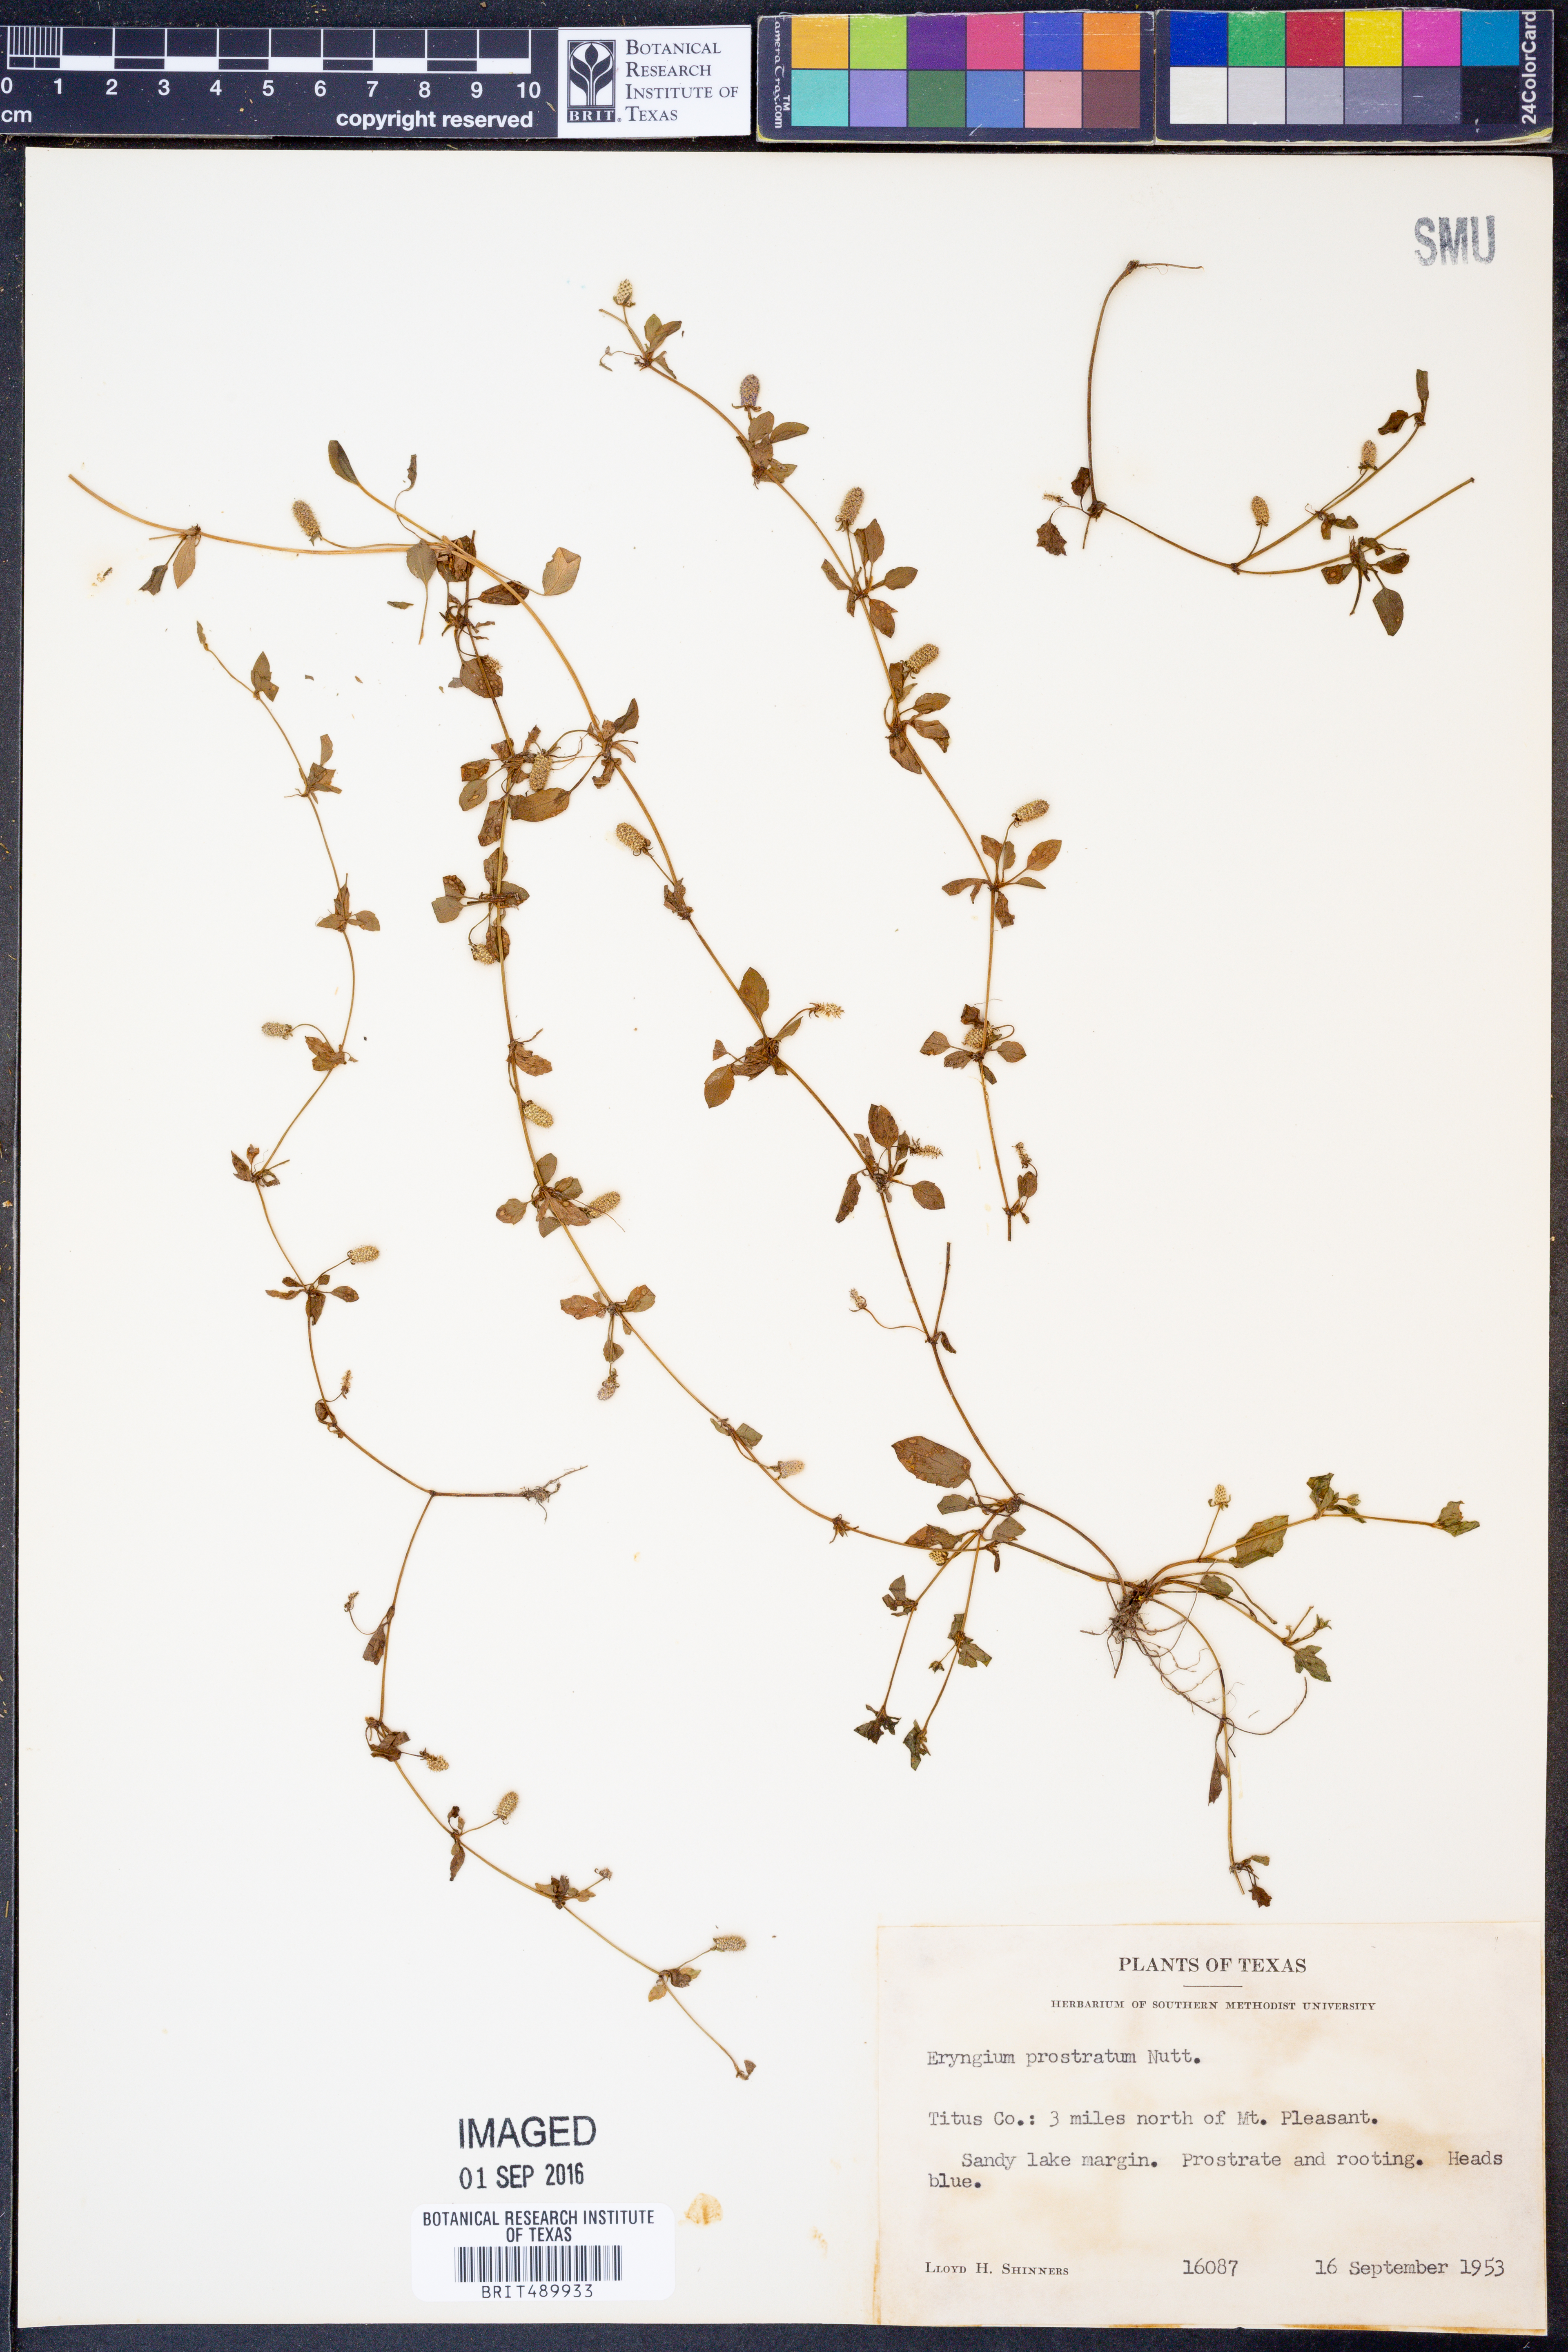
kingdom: Plantae
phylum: Tracheophyta
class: Magnoliopsida
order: Apiales
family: Apiaceae
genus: Eryngium
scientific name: Eryngium prostratum
